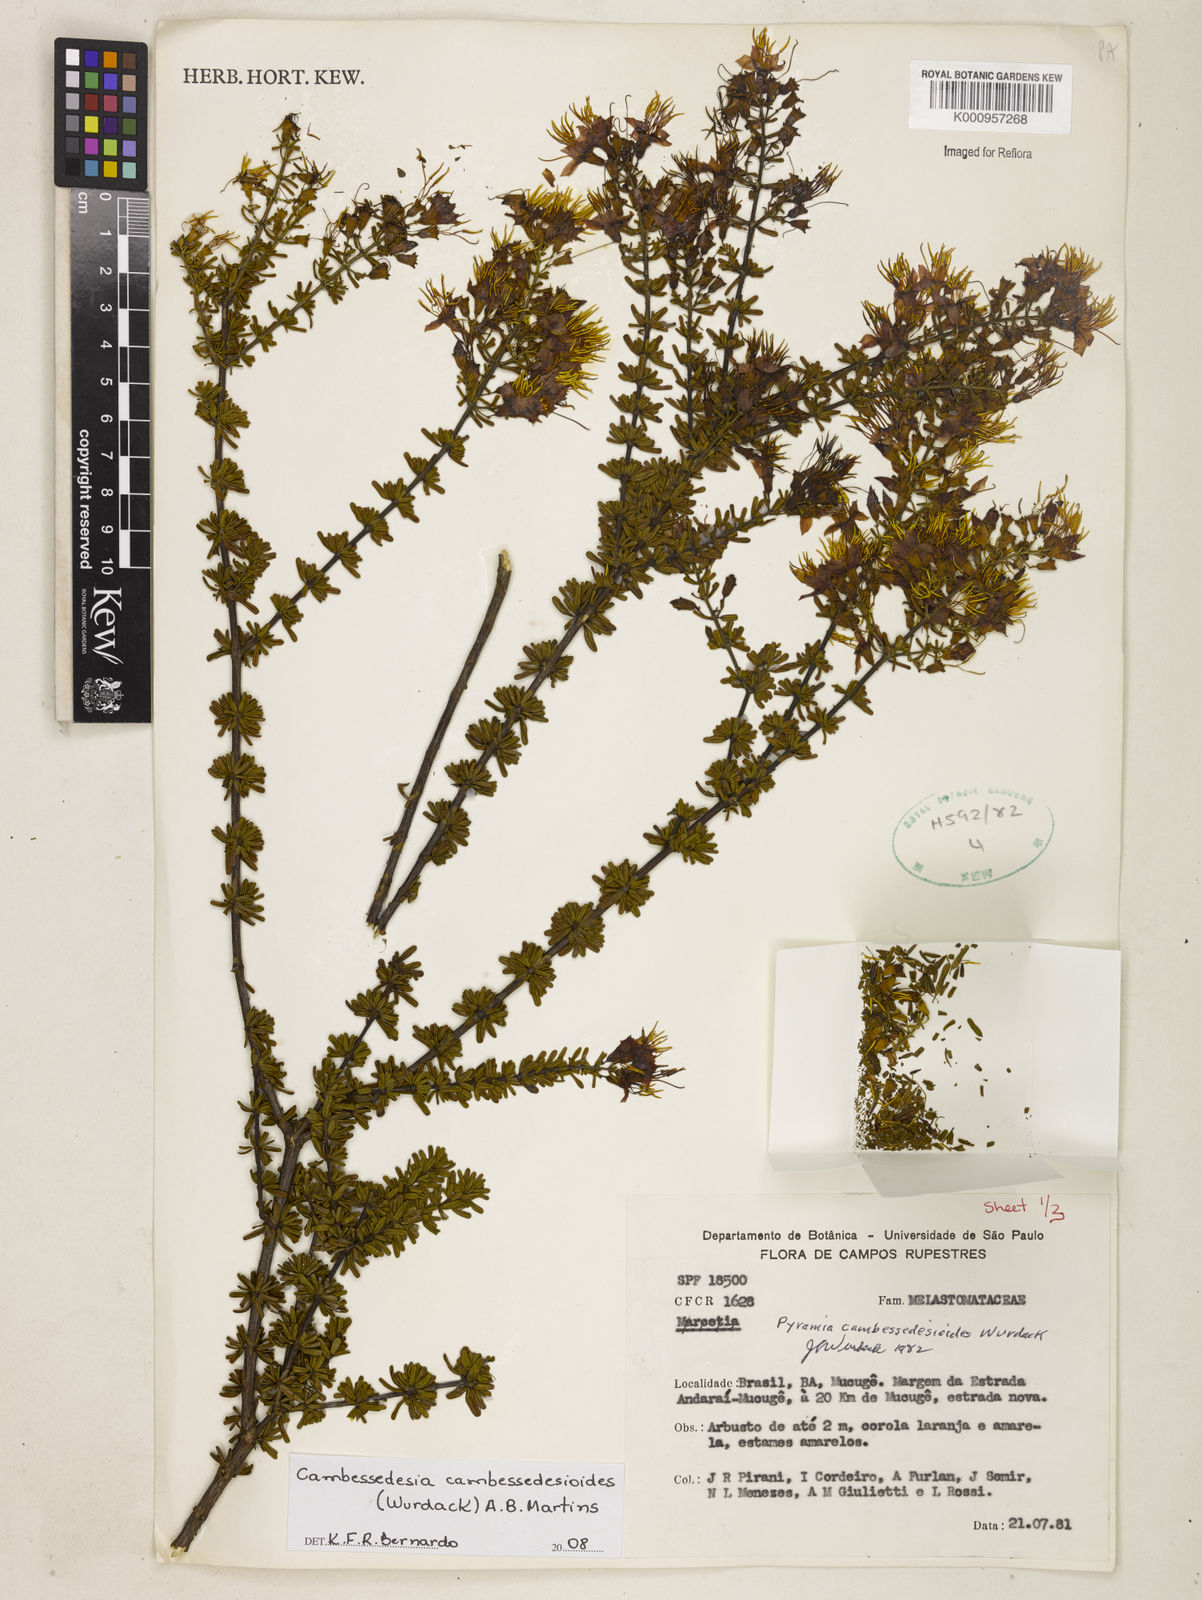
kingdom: Plantae
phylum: Tracheophyta
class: Magnoliopsida
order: Myrtales
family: Melastomataceae
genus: Cambessedesia
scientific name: Cambessedesia cambessedesioides
